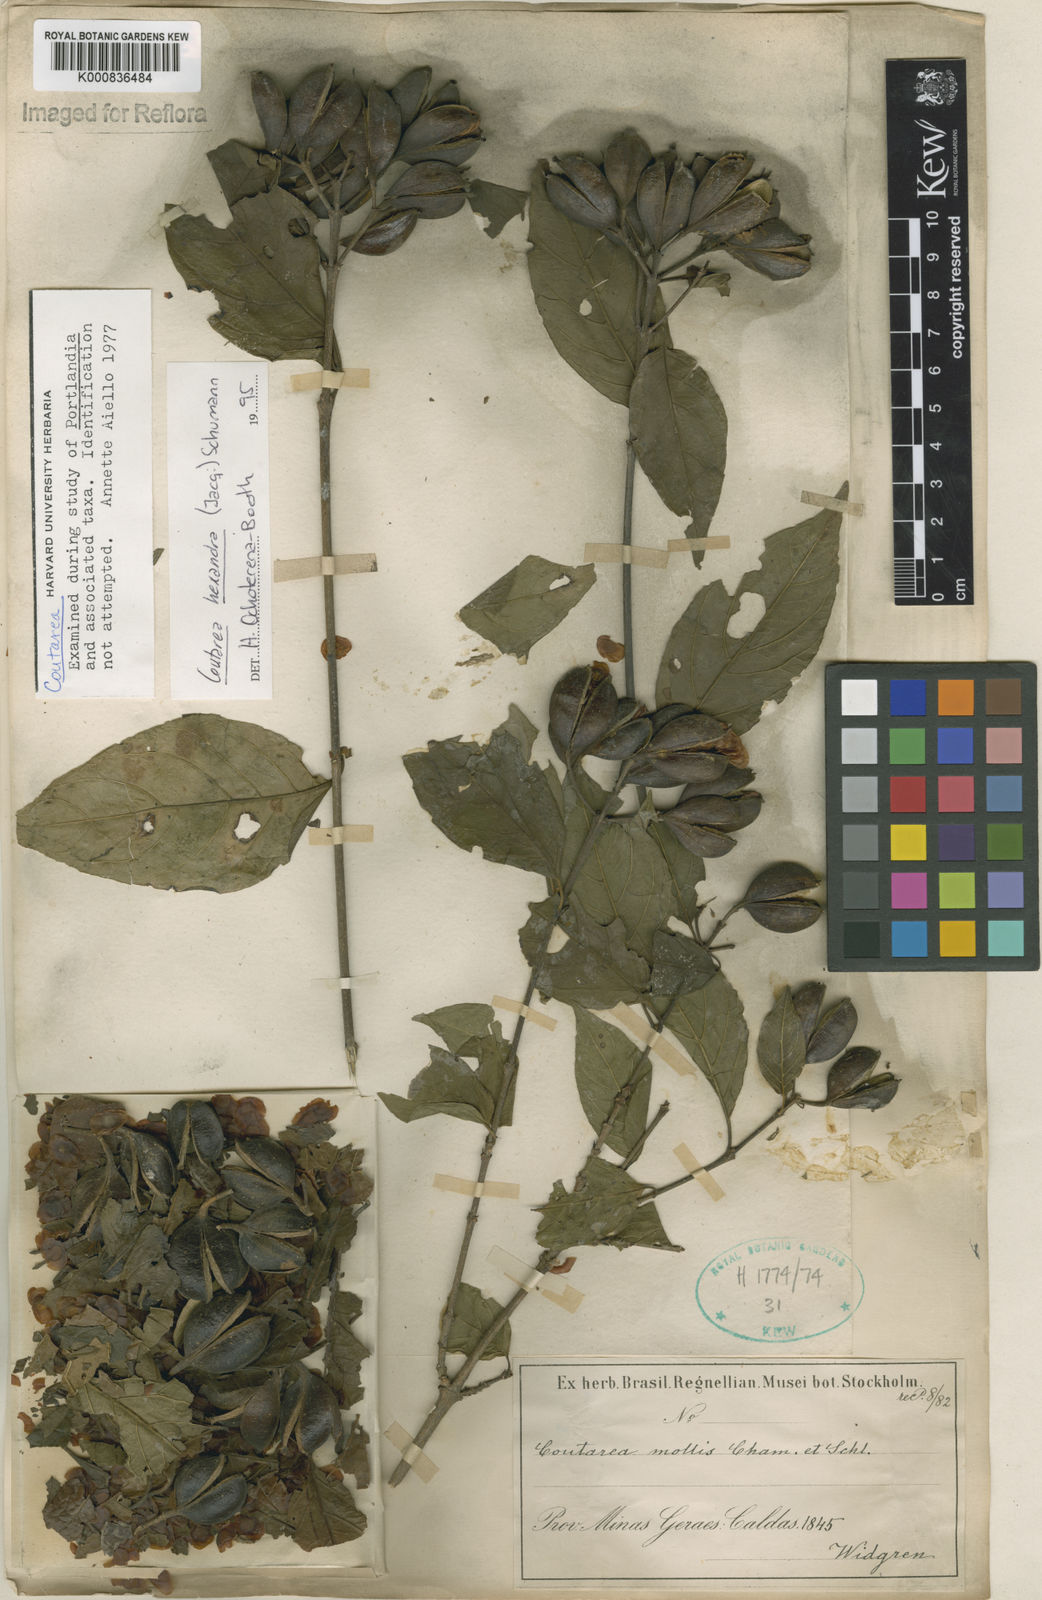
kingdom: Plantae
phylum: Tracheophyta
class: Magnoliopsida
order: Gentianales
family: Rubiaceae
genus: Coutarea
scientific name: Coutarea hexandra
